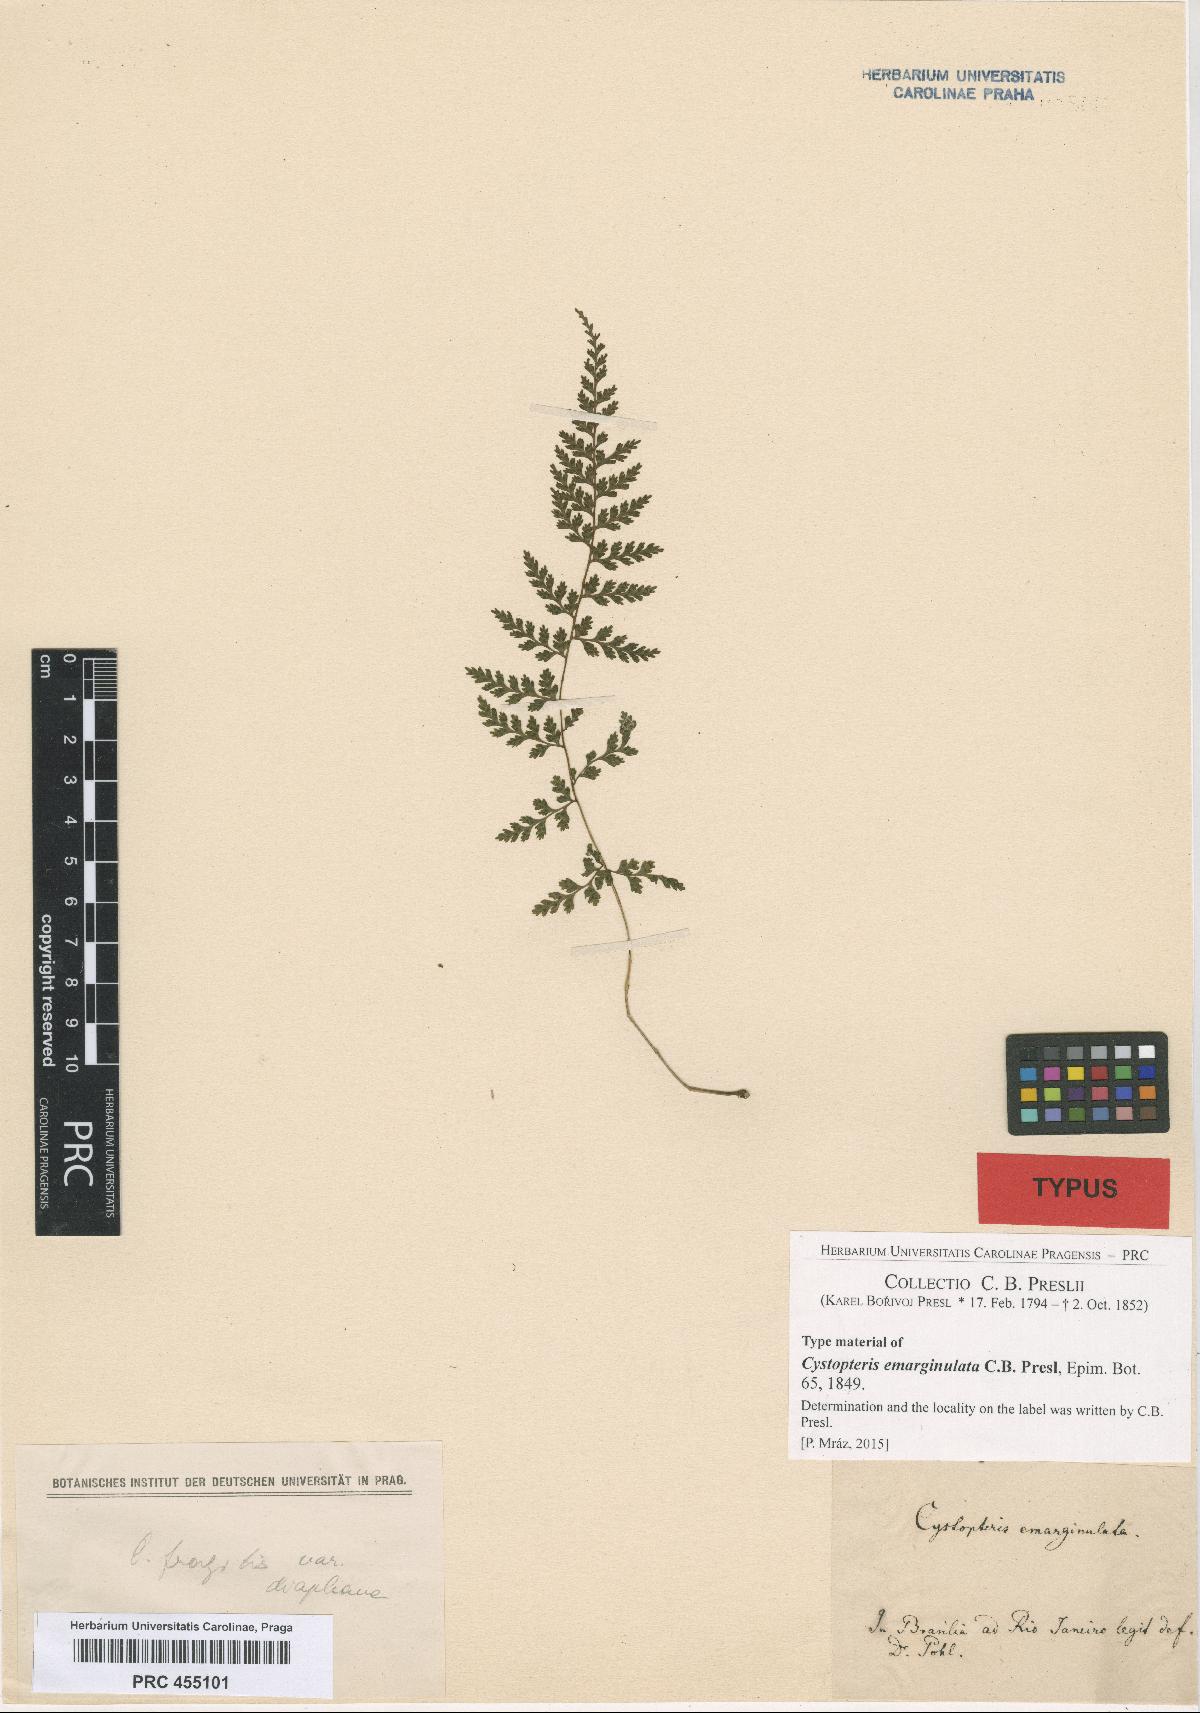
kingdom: Plantae
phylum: Tracheophyta
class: Polypodiopsida
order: Polypodiales
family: Cystopteridaceae
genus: Cystopteris
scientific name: Cystopteris diaphana
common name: Greenish bladder-fern
